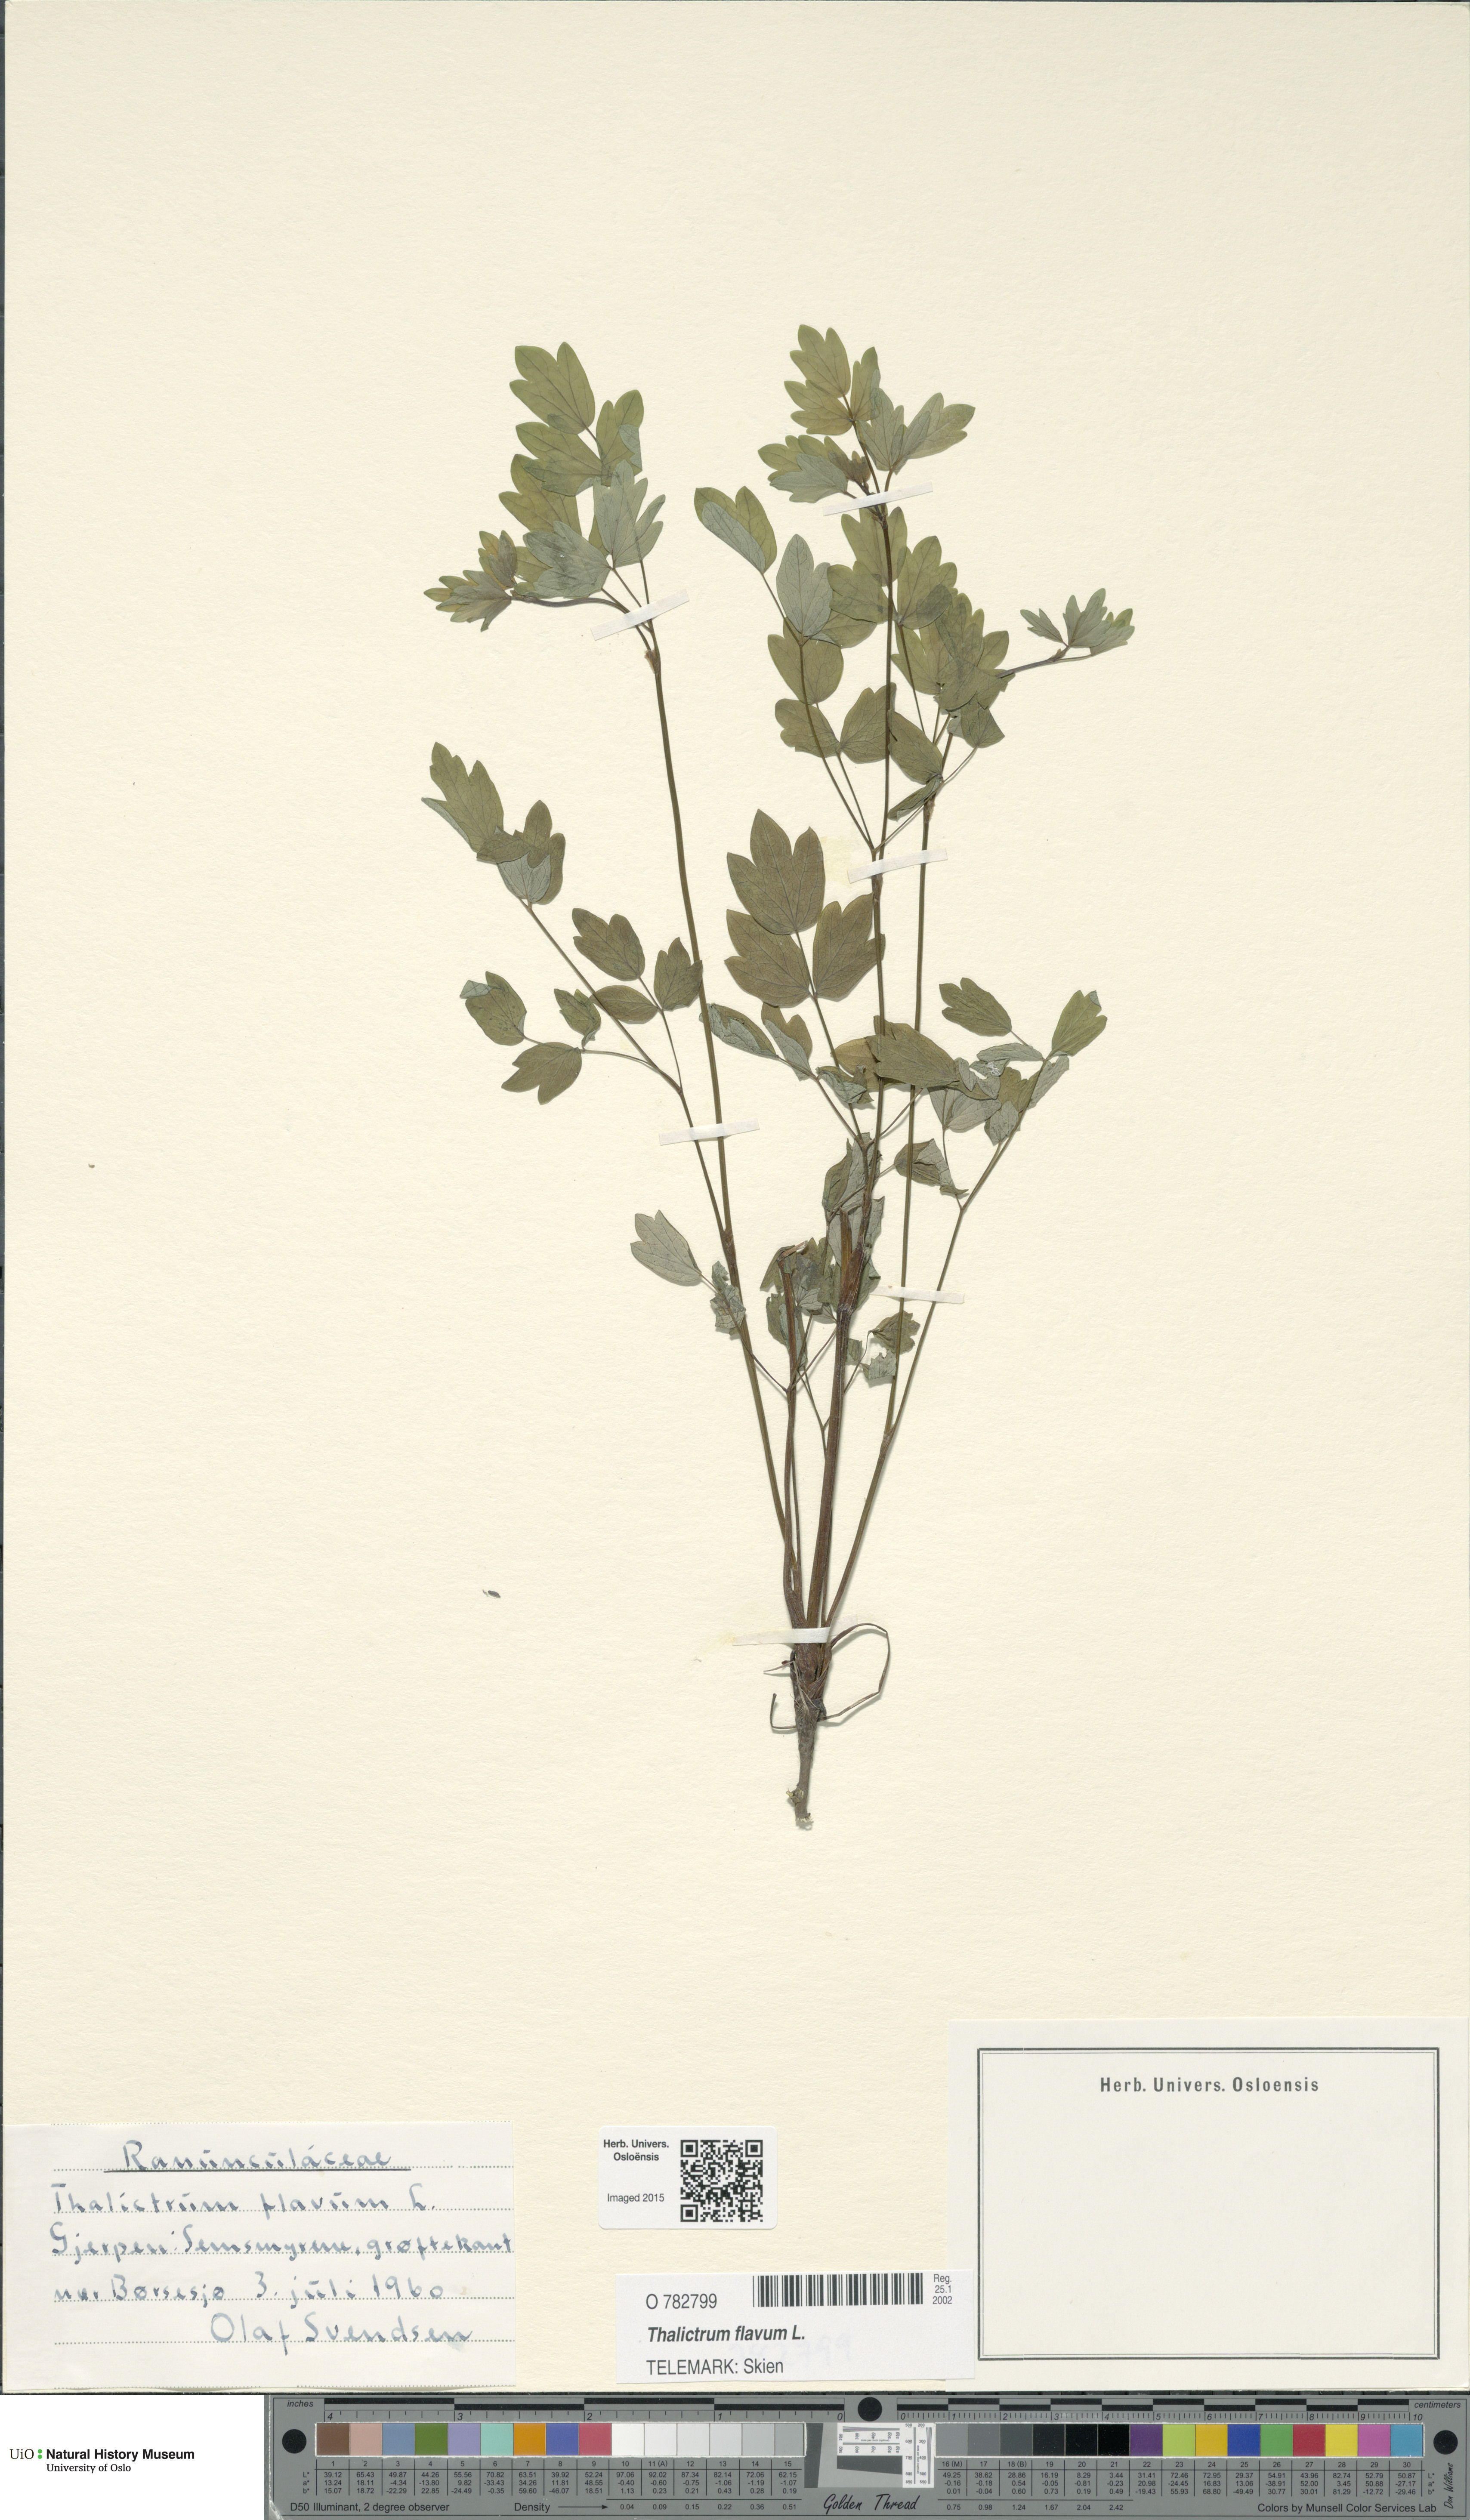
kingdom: Plantae
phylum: Tracheophyta
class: Magnoliopsida
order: Ranunculales
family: Ranunculaceae
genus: Thalictrum
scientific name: Thalictrum flavum
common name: Common meadow-rue
